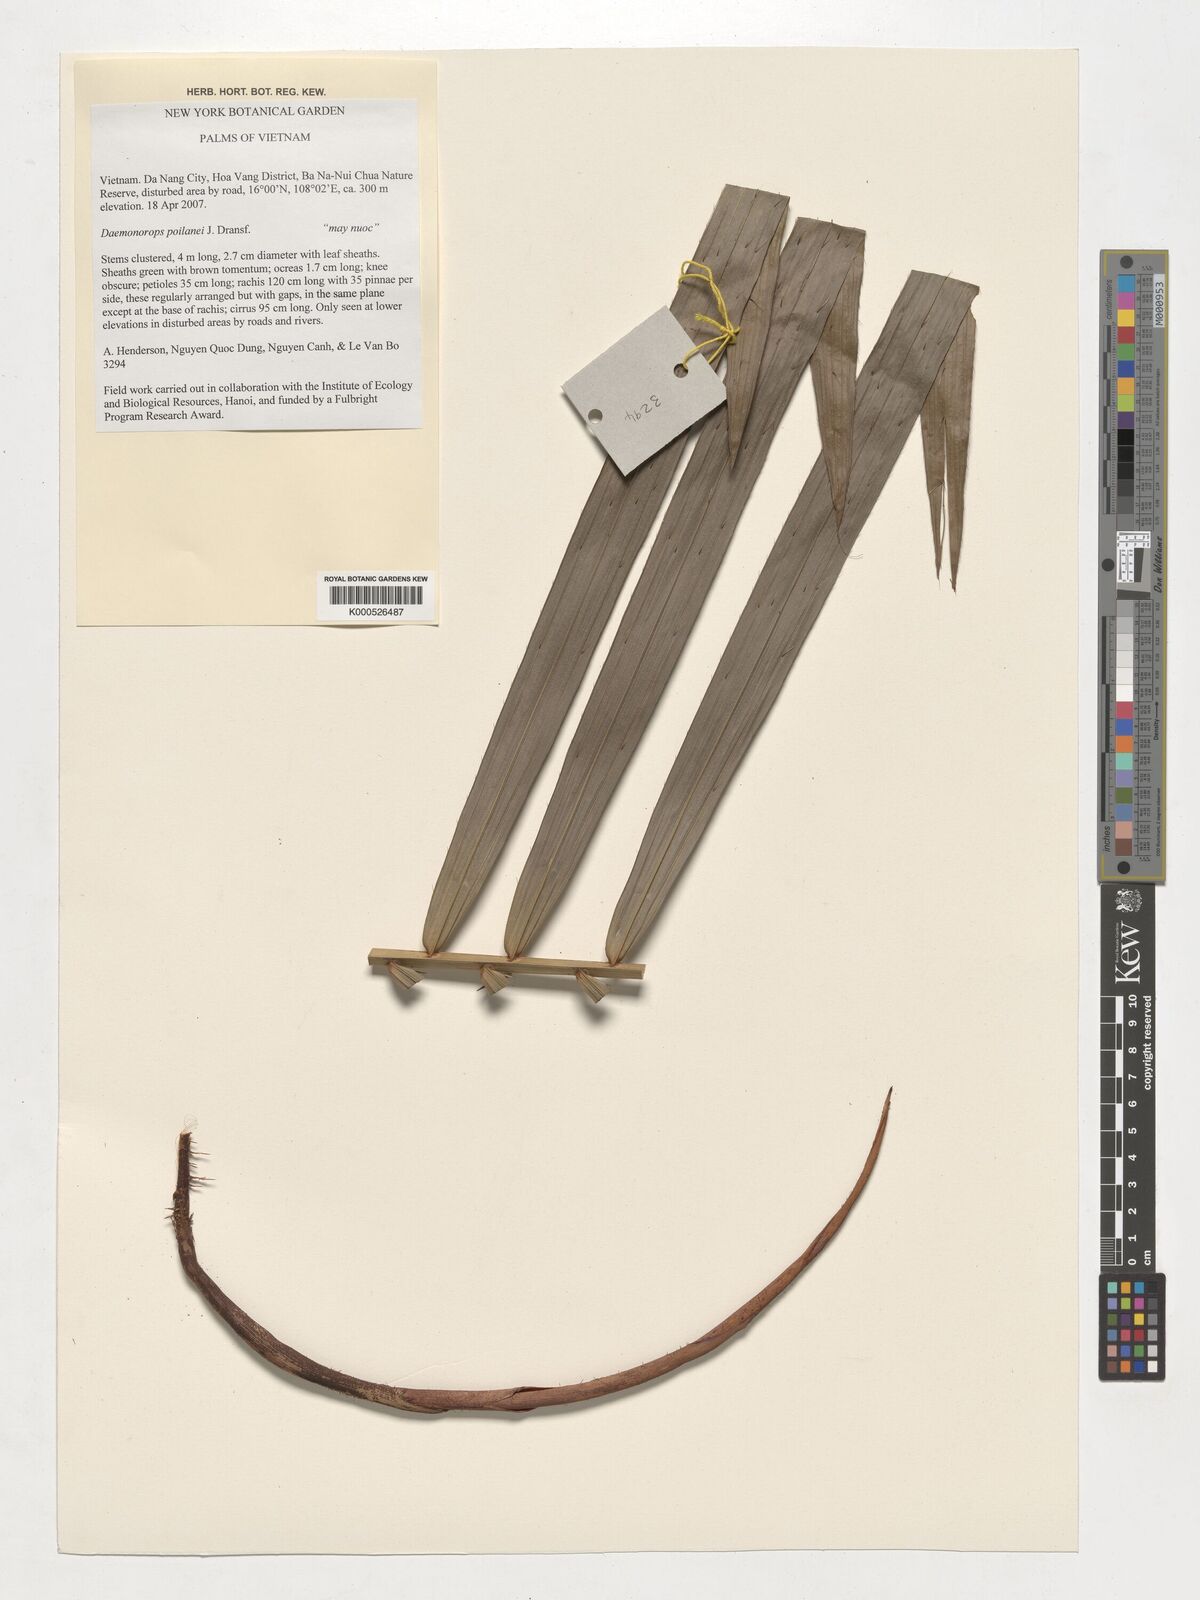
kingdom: Plantae
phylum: Tracheophyta
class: Liliopsida
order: Arecales
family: Arecaceae
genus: Calamus
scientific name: Calamus eugenei
